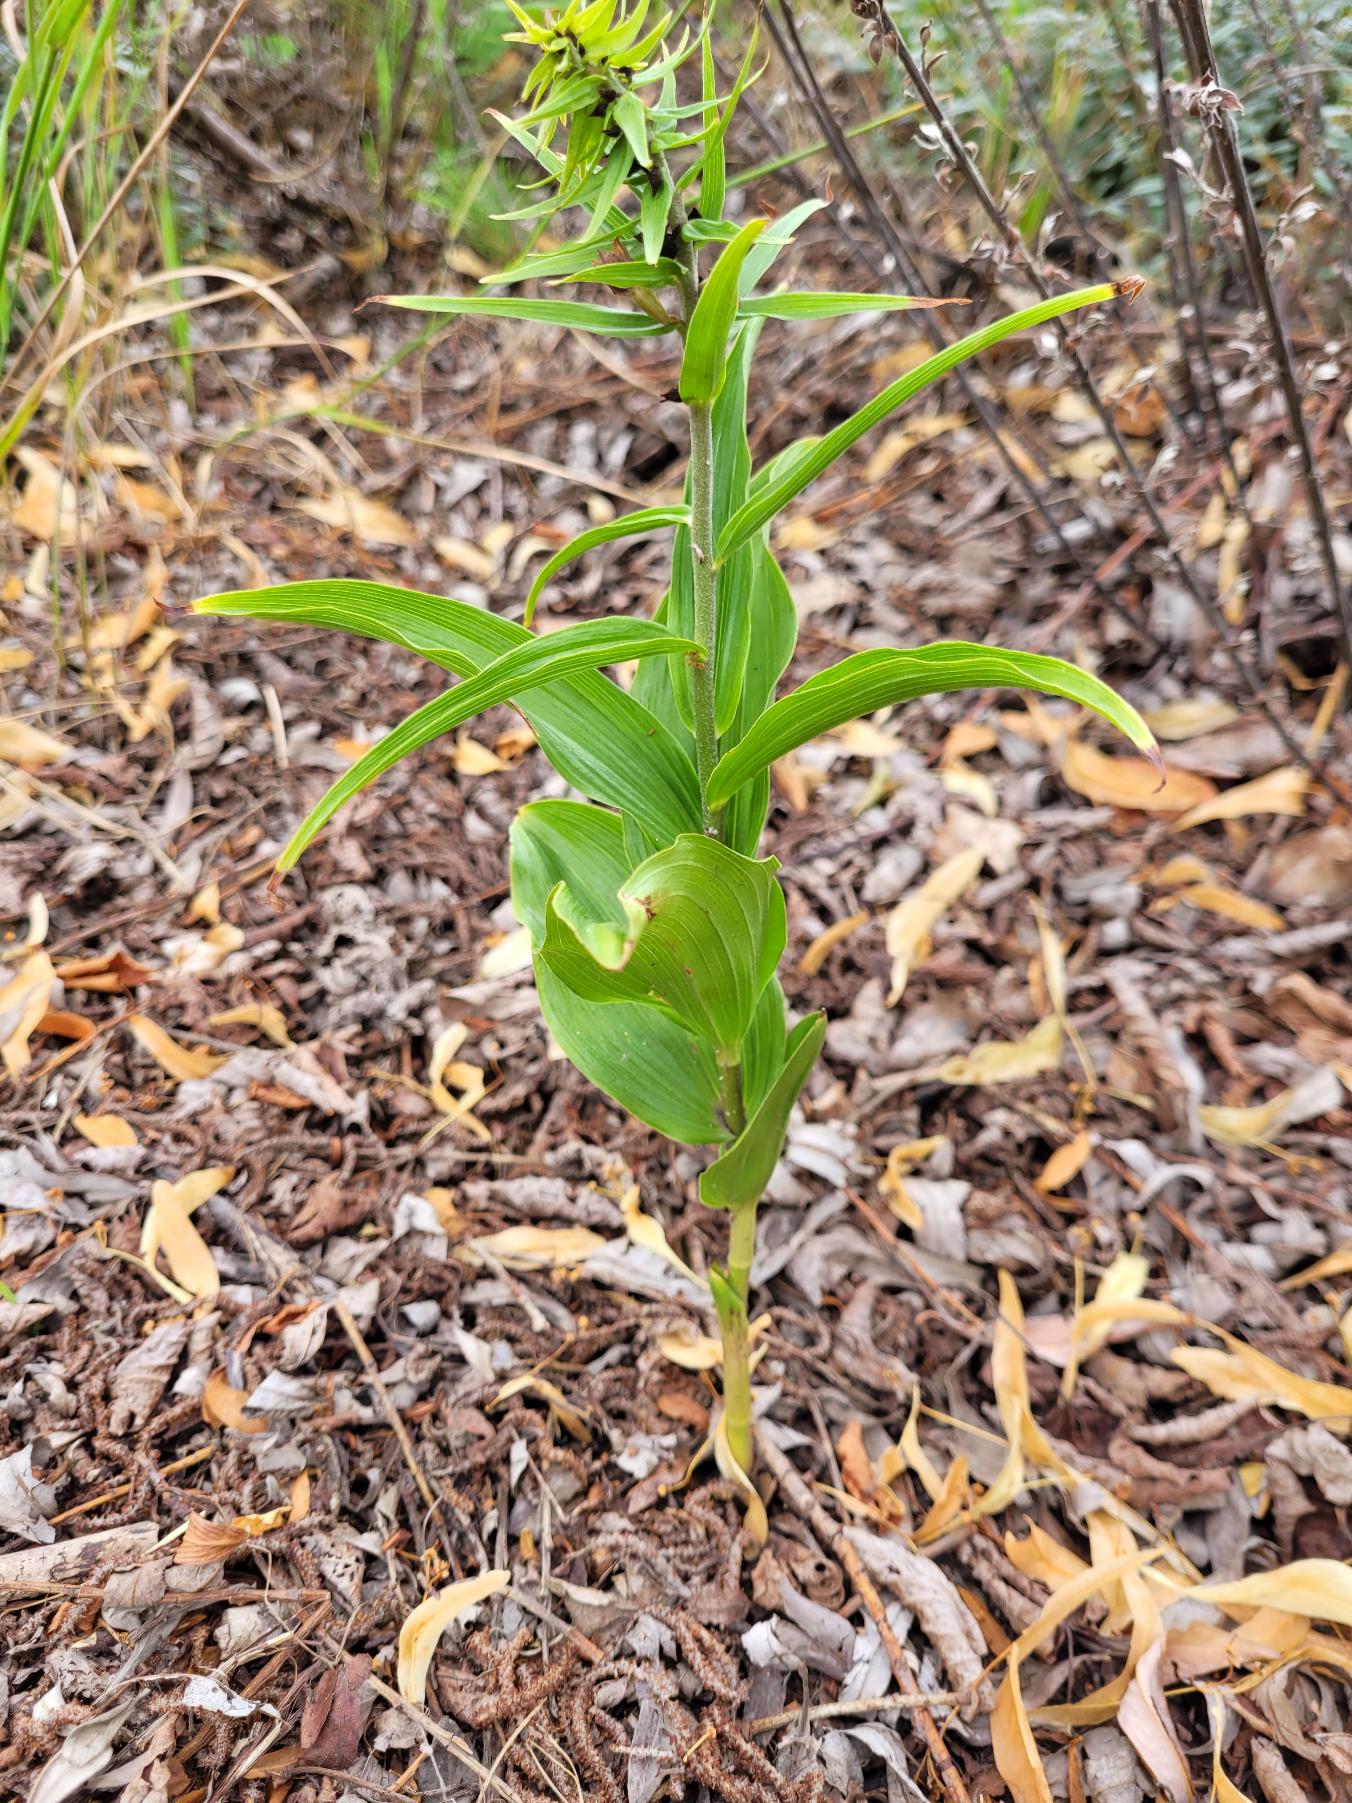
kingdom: Plantae
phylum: Tracheophyta
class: Liliopsida
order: Asparagales
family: Orchidaceae
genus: Epipactis
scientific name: Epipactis helleborine
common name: Skov-hullæbe
